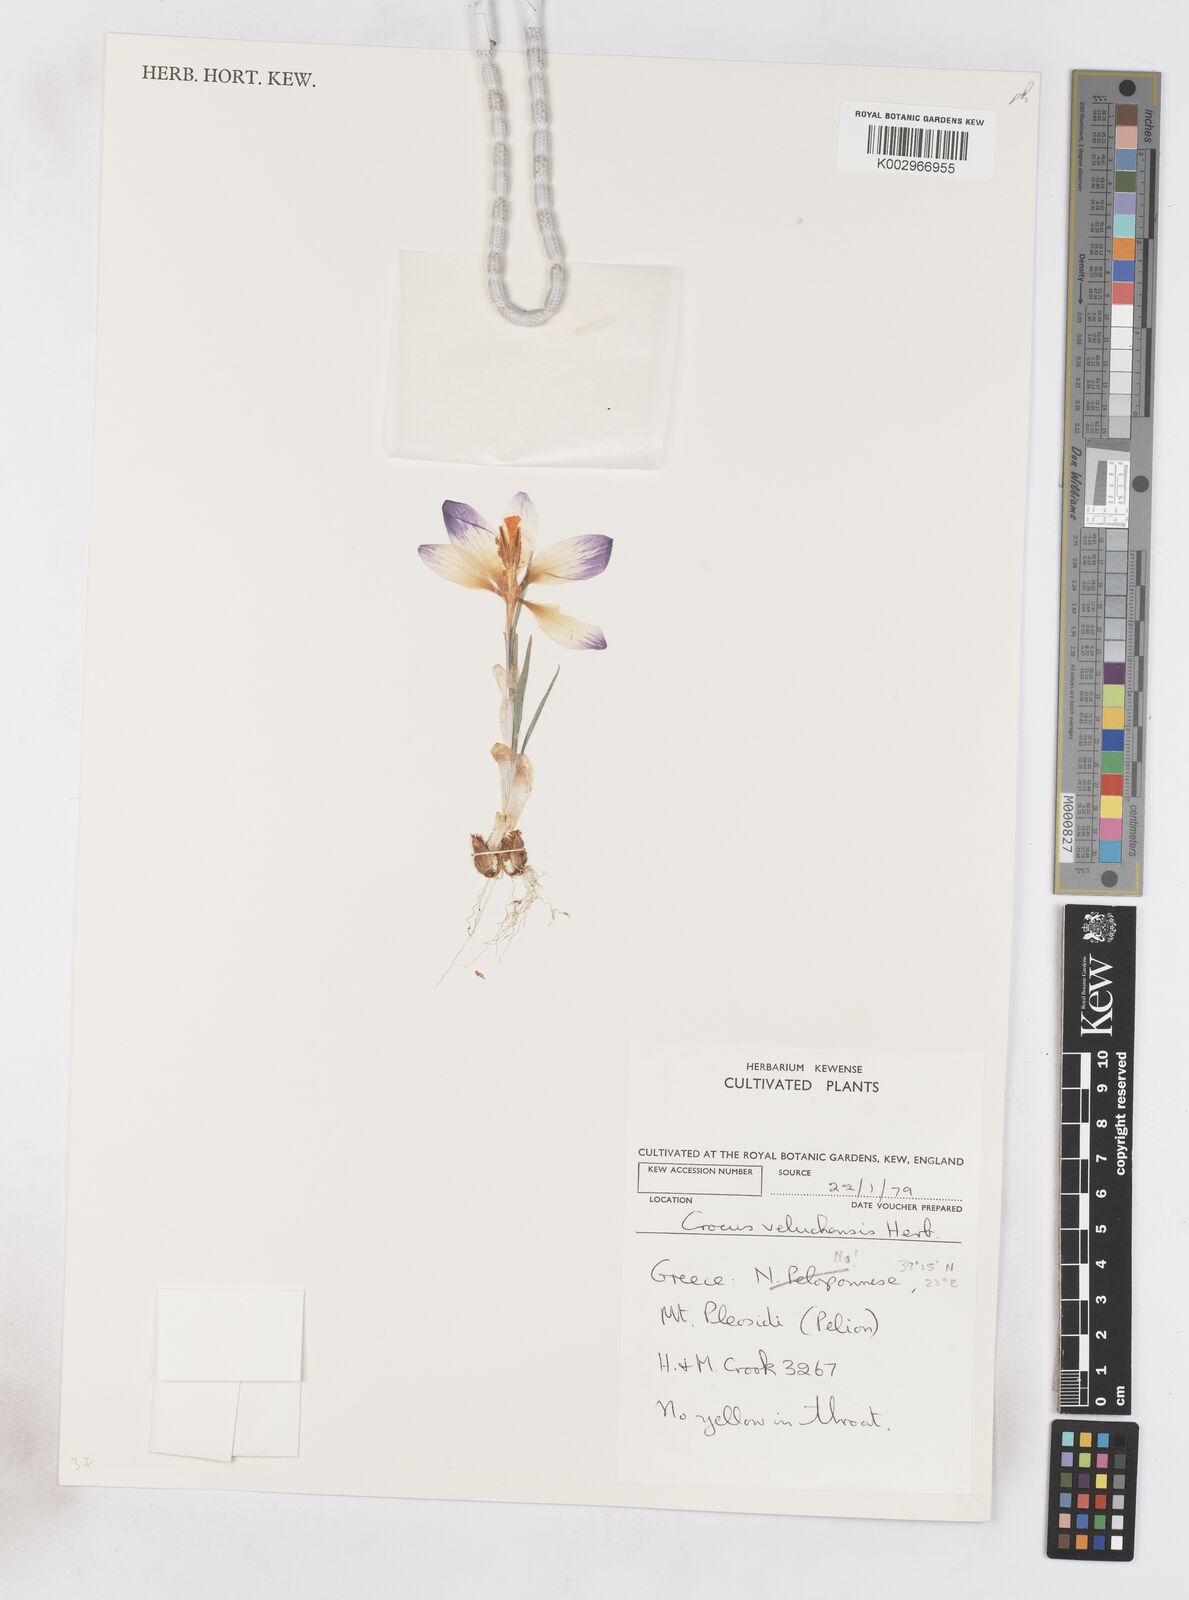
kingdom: Plantae
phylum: Tracheophyta
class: Liliopsida
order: Asparagales
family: Iridaceae
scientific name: Iridaceae
